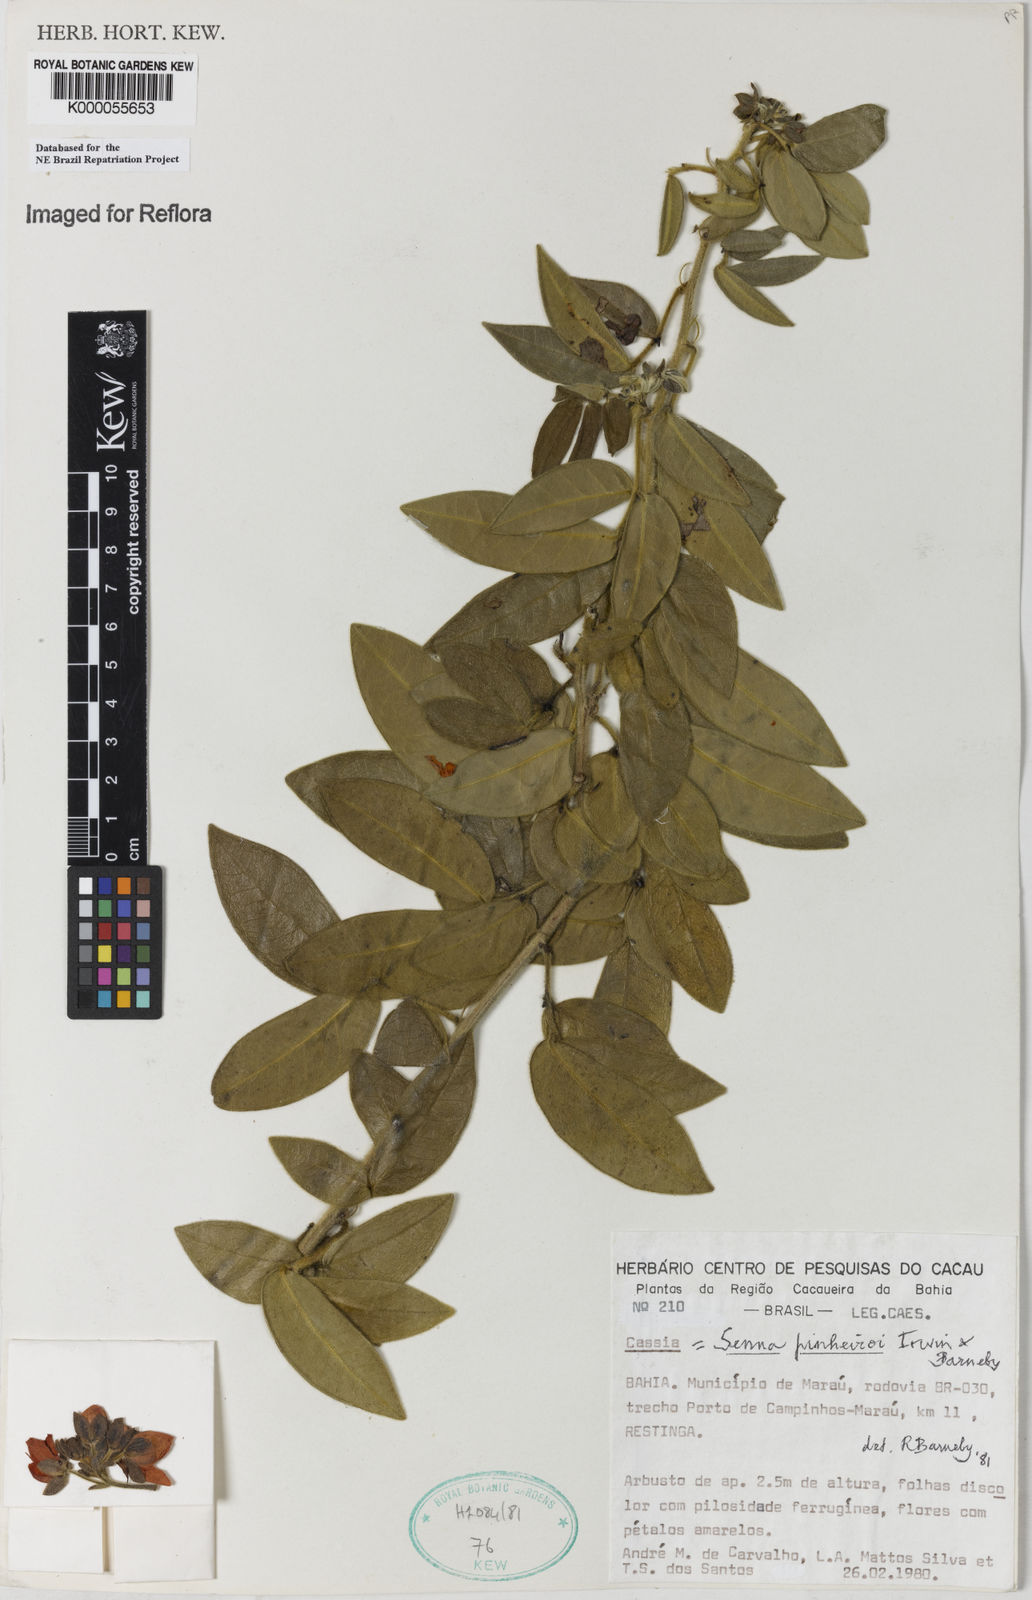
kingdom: Plantae
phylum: Tracheophyta
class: Magnoliopsida
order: Fabales
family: Fabaceae
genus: Senna
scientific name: Senna
